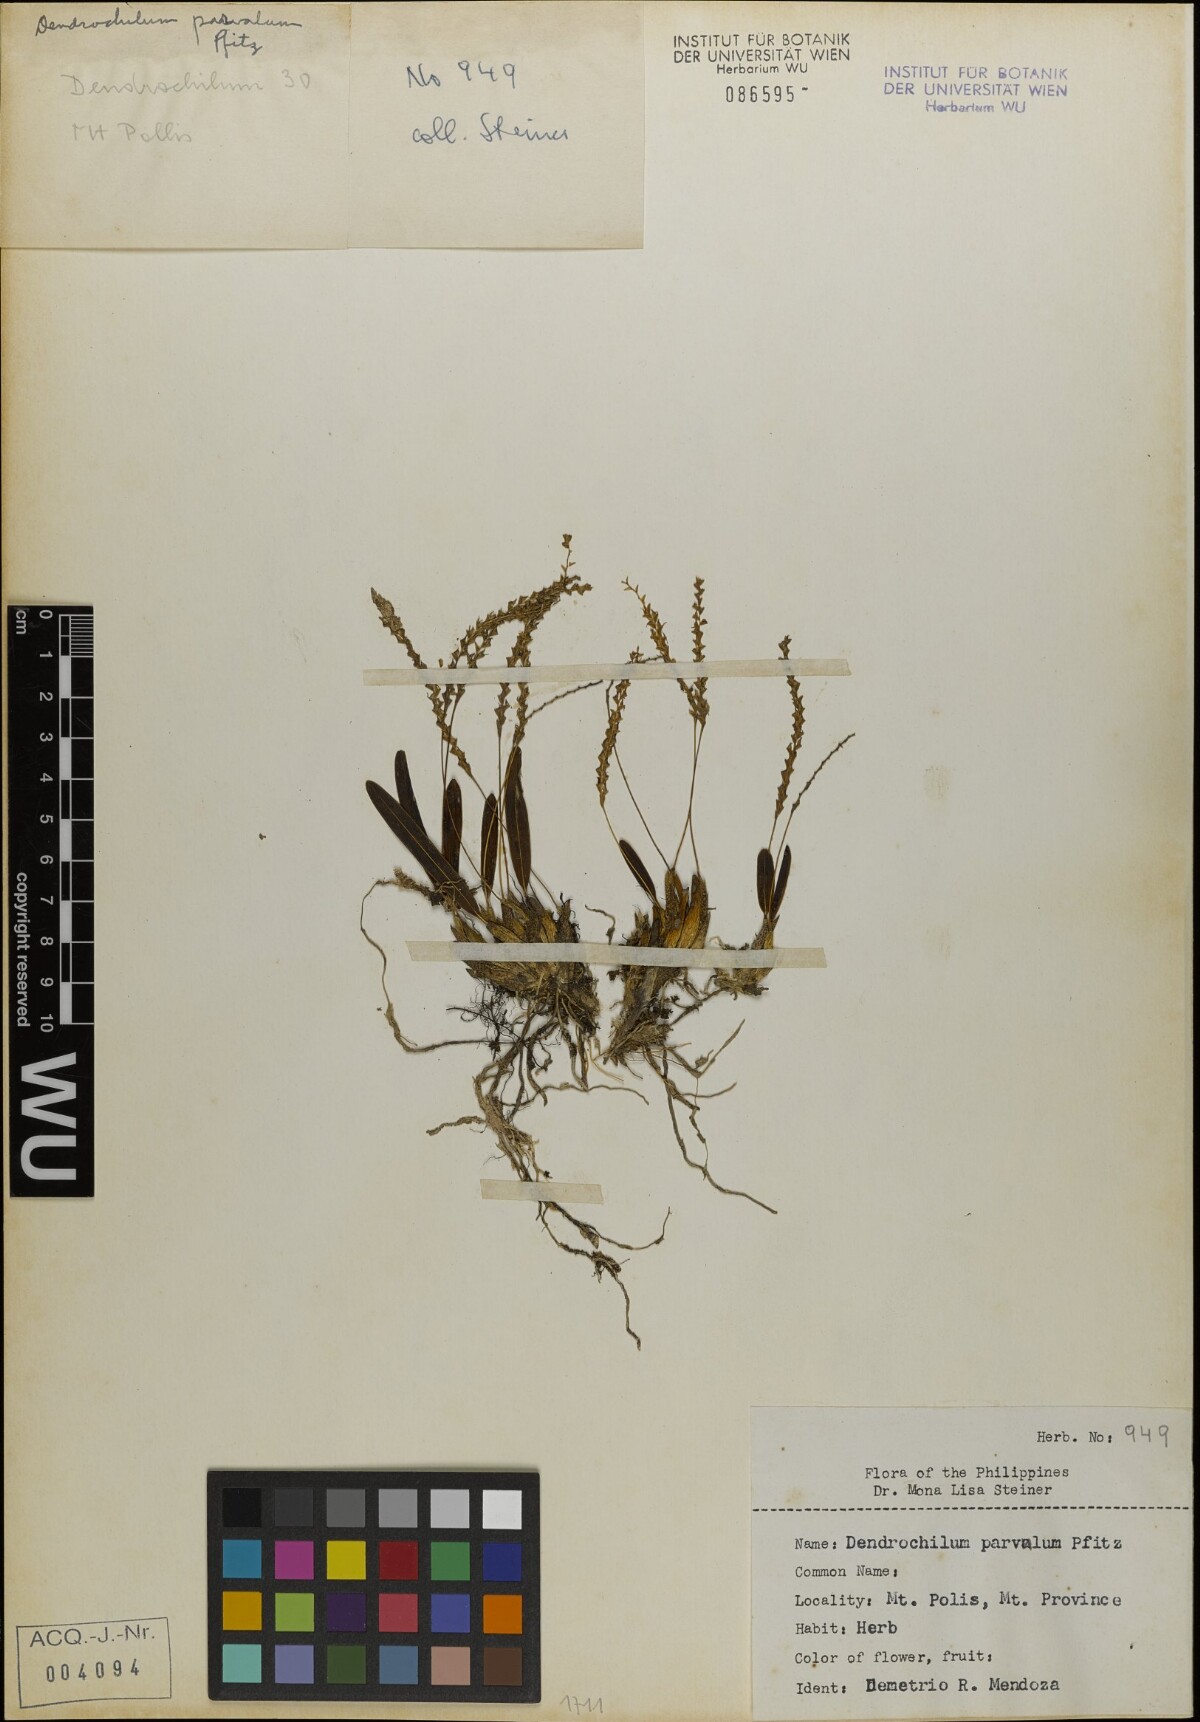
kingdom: Plantae
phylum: Tracheophyta
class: Liliopsida
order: Asparagales
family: Orchidaceae
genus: Coelogyne
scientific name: Coelogyne parvula
